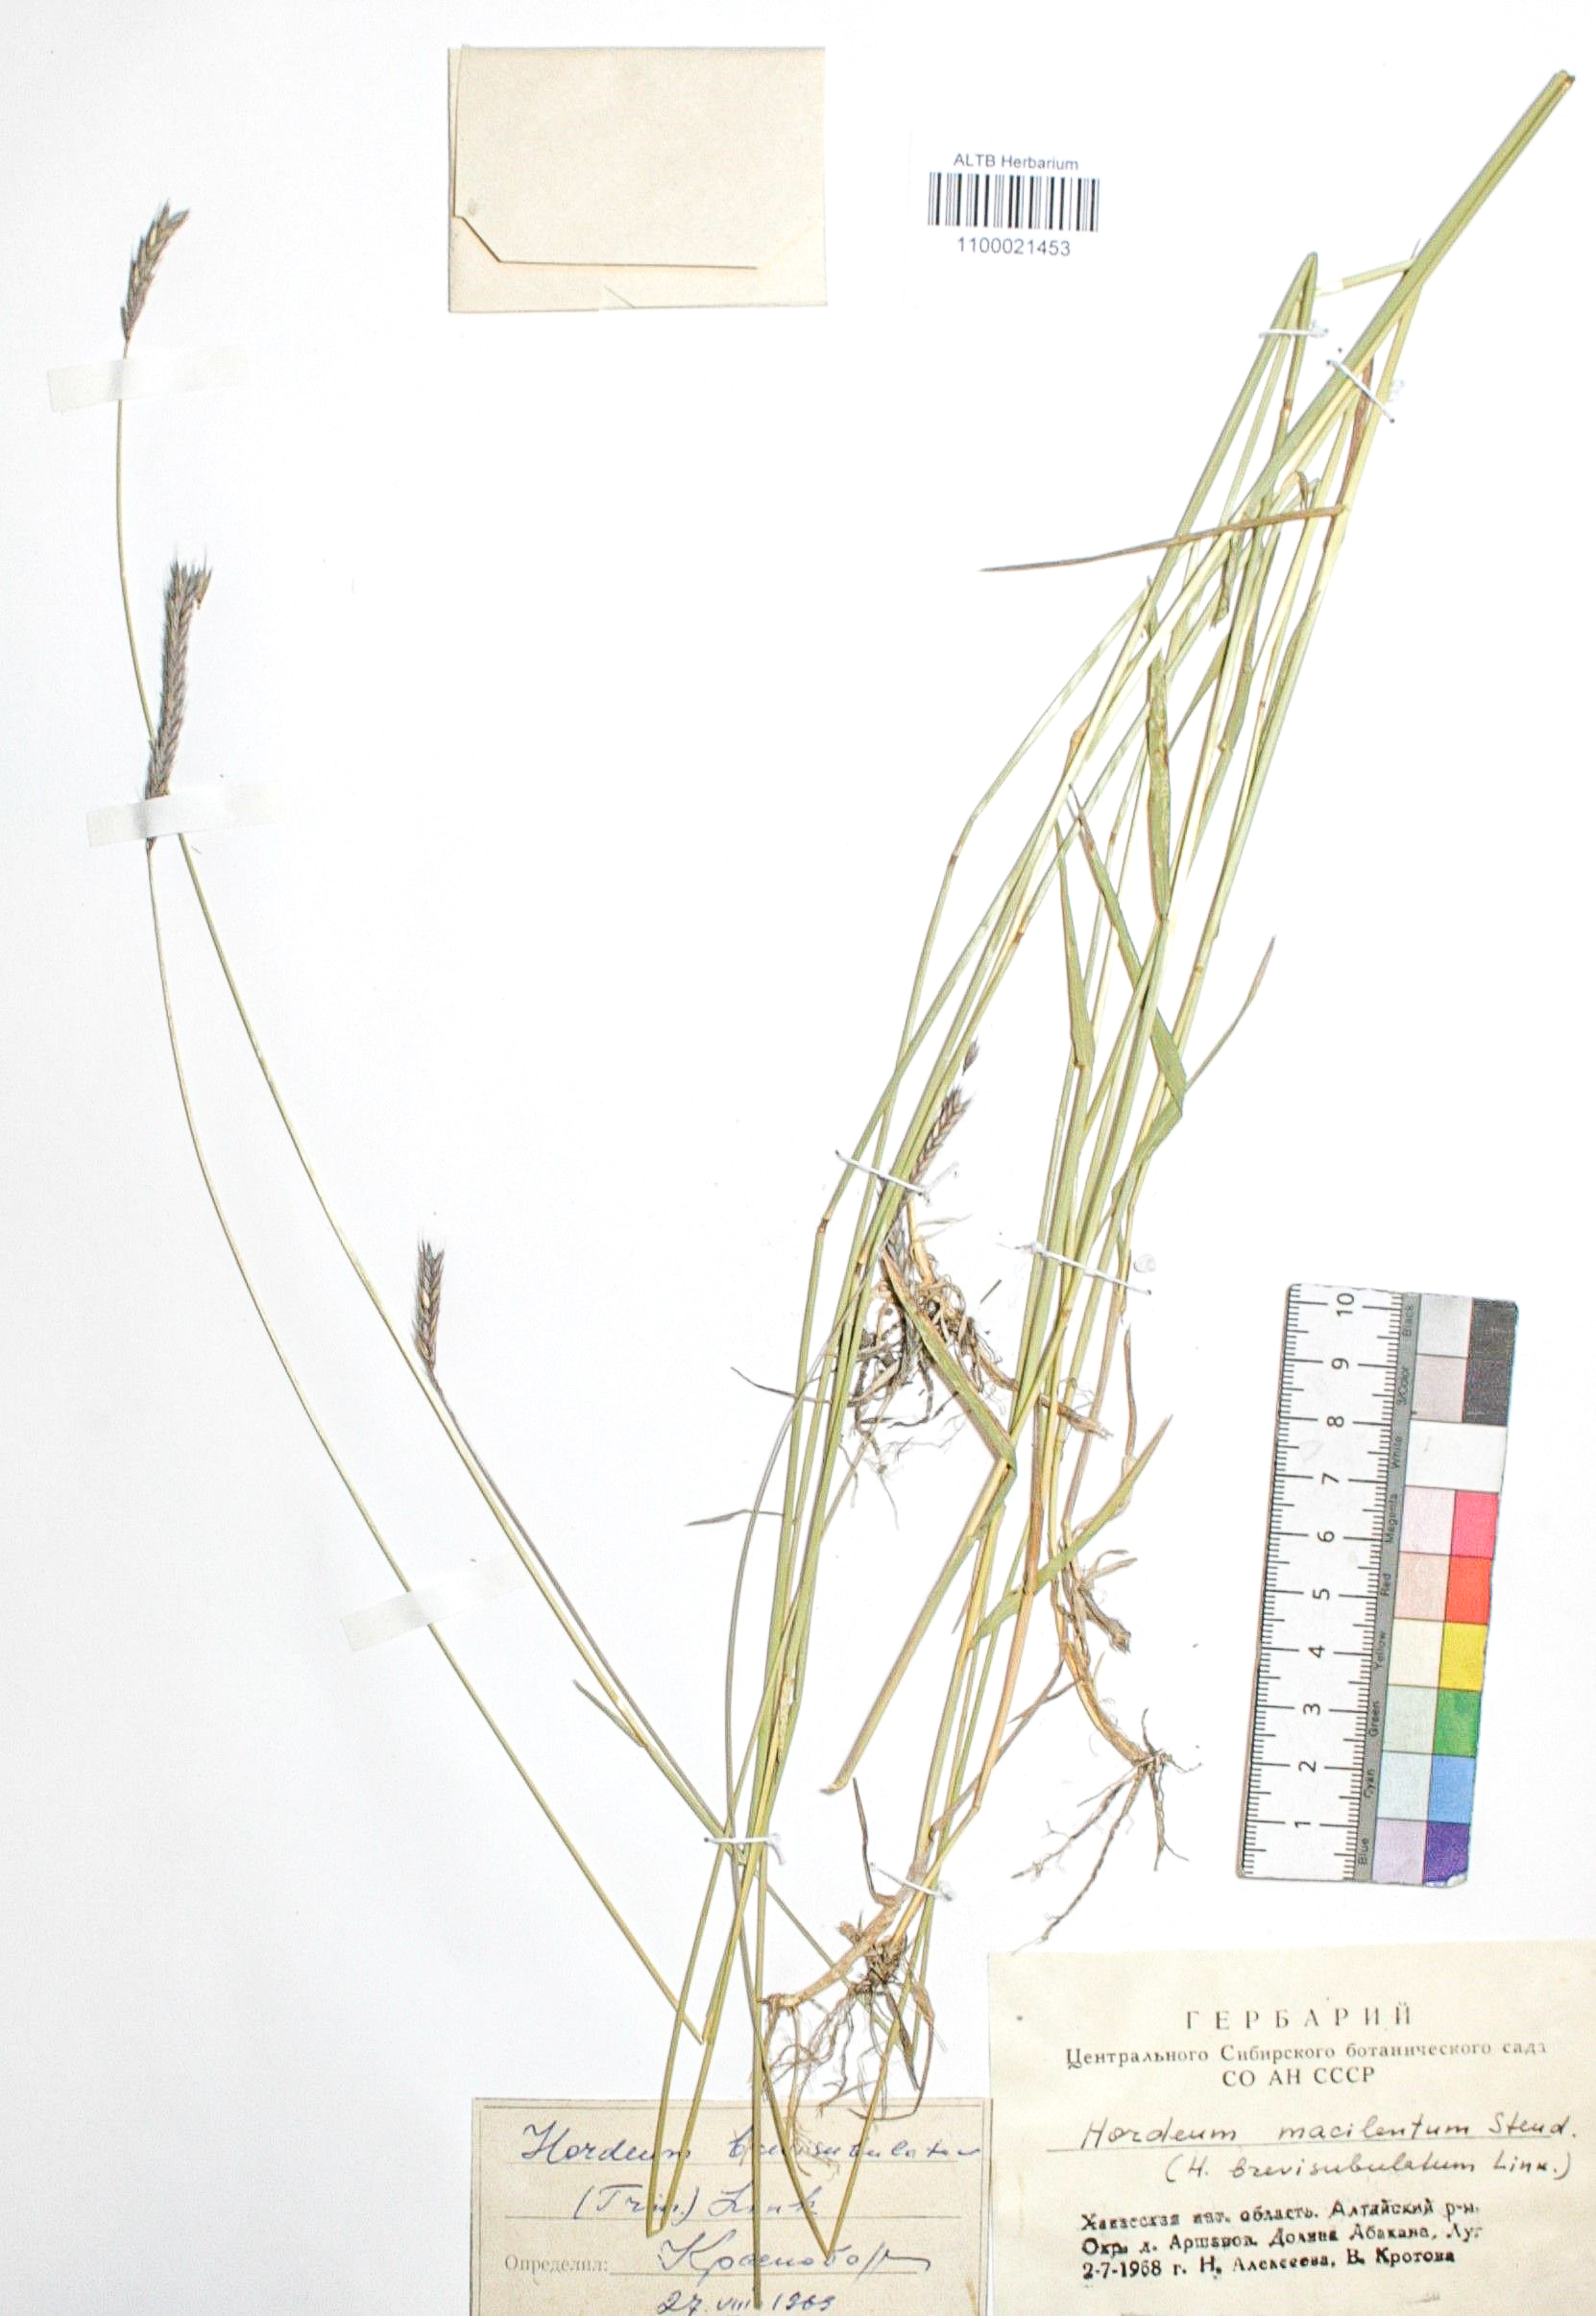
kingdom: Plantae
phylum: Tracheophyta
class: Liliopsida
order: Poales
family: Poaceae
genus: Hordeum
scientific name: Hordeum brevisubulatum
